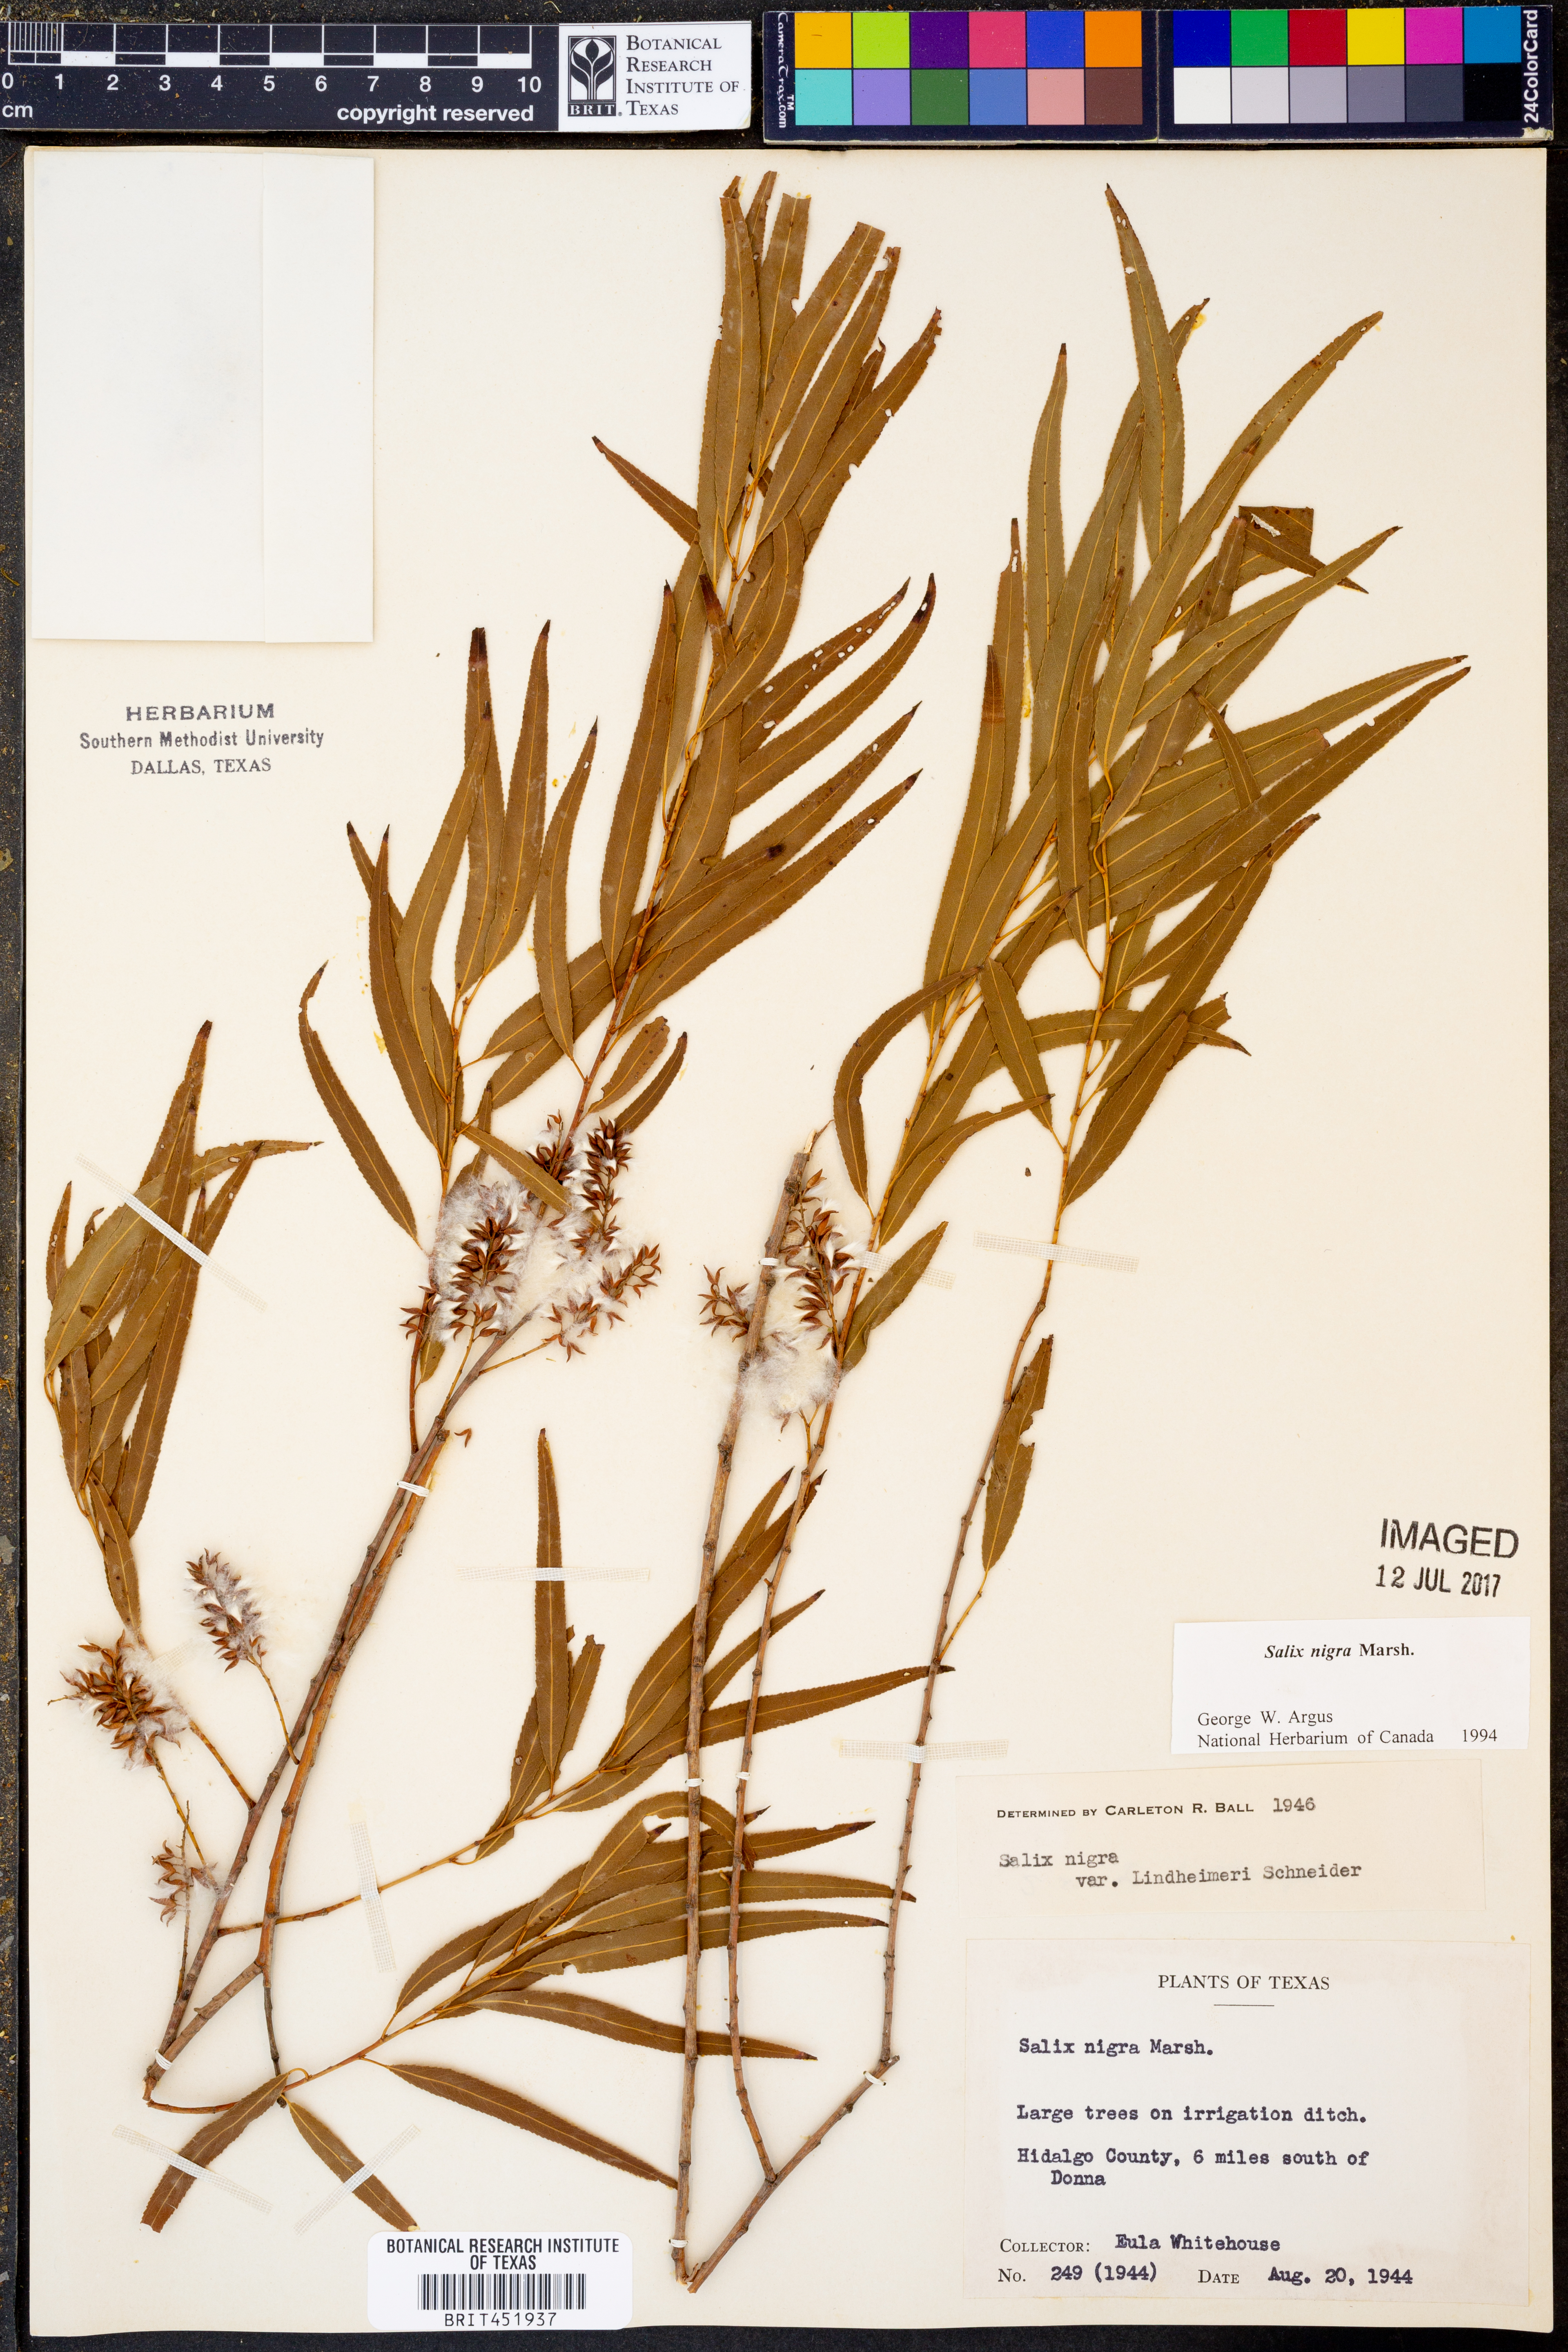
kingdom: Plantae
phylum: Tracheophyta
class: Magnoliopsida
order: Malpighiales
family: Salicaceae
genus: Salix
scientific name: Salix nigra
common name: Black willow
